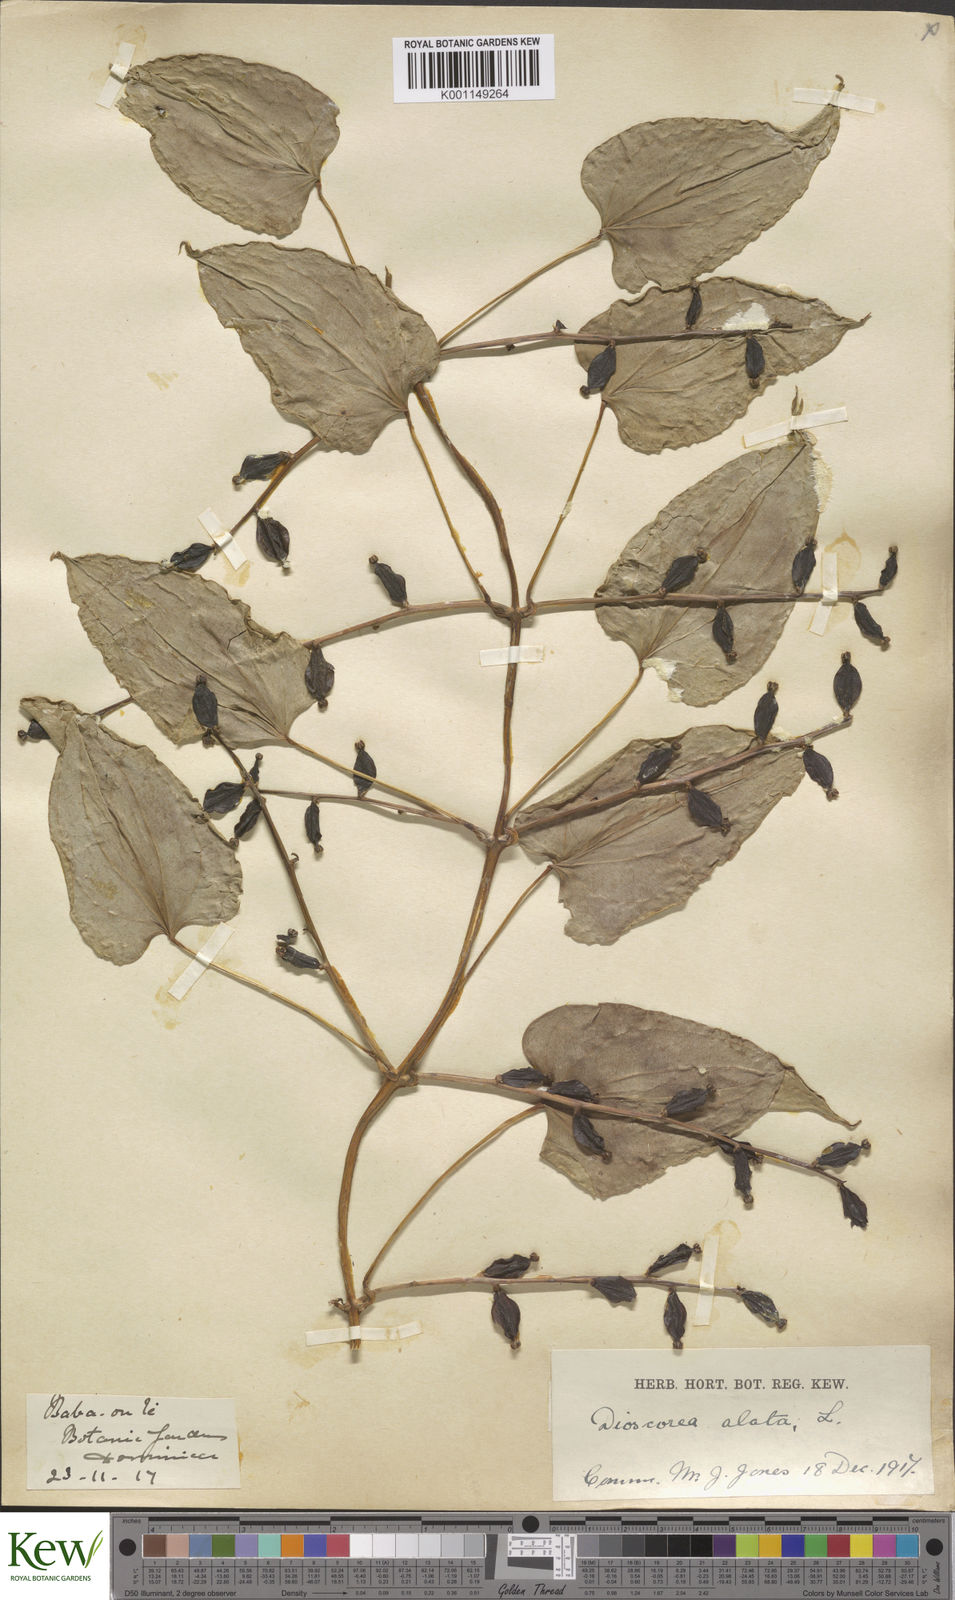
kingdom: Plantae
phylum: Tracheophyta
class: Liliopsida
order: Dioscoreales
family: Dioscoreaceae
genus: Dioscorea
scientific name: Dioscorea alata
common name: Water yam
